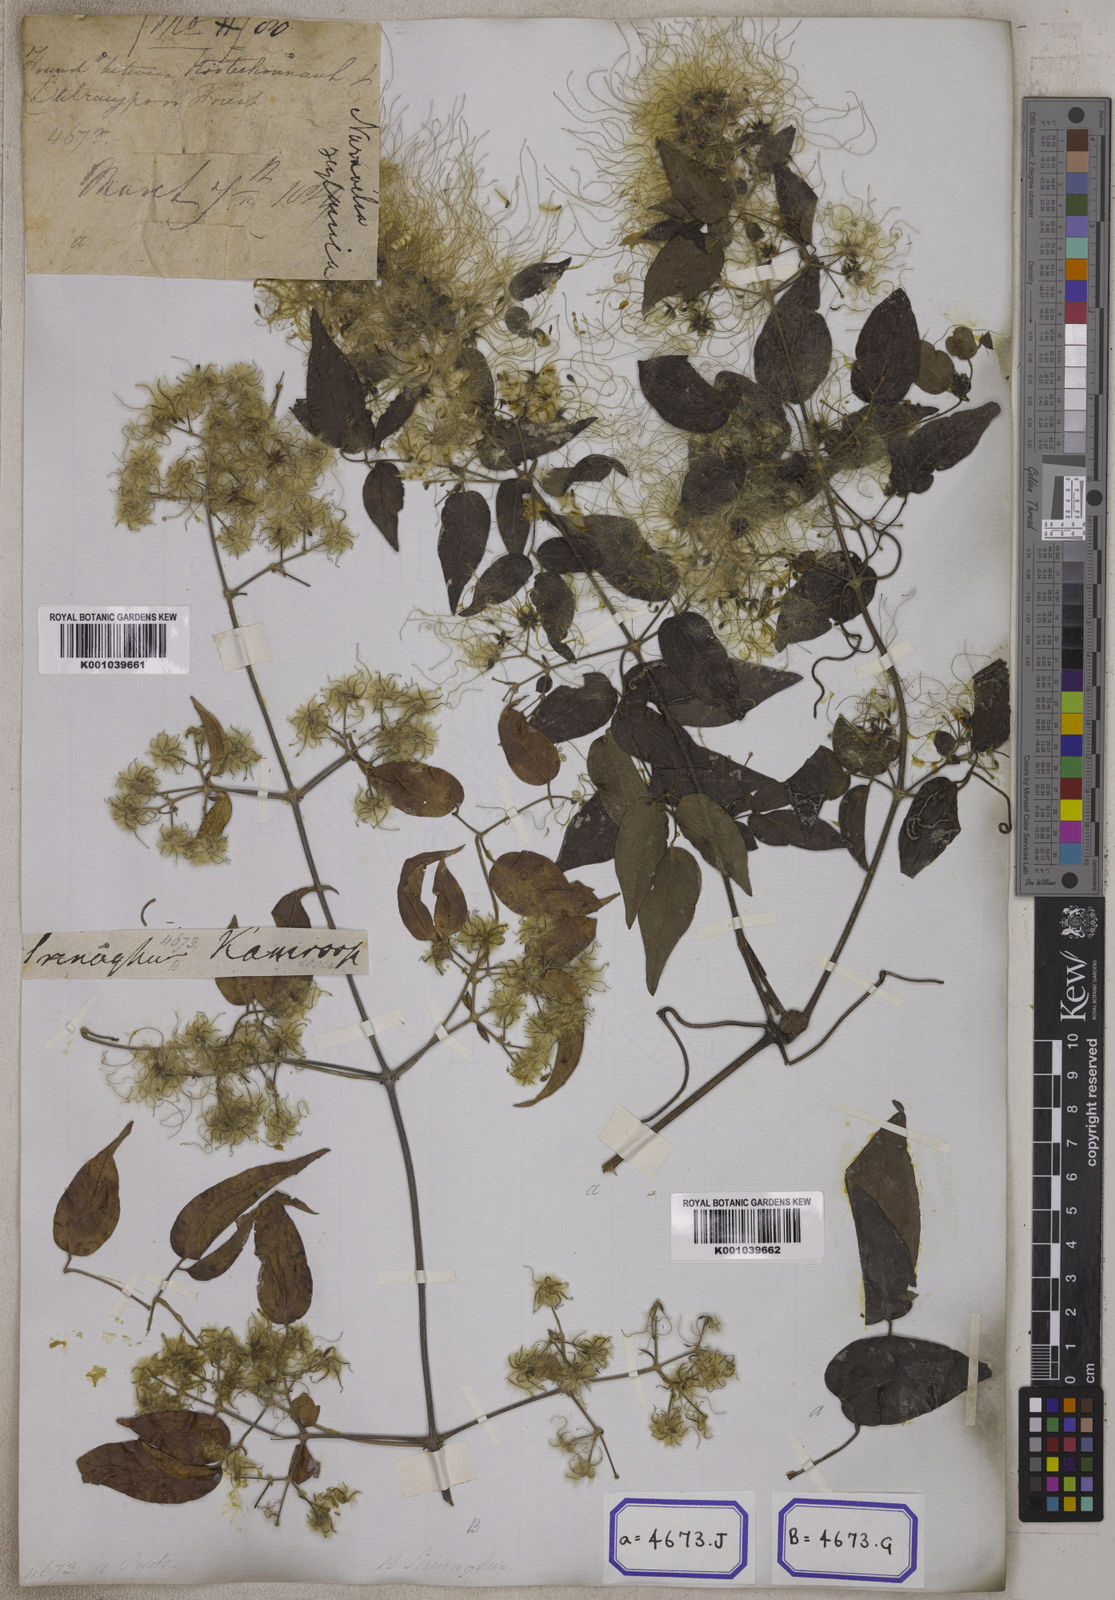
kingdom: Plantae
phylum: Tracheophyta
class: Magnoliopsida
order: Ranunculales
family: Ranunculaceae
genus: Clematis
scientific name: Clematis
